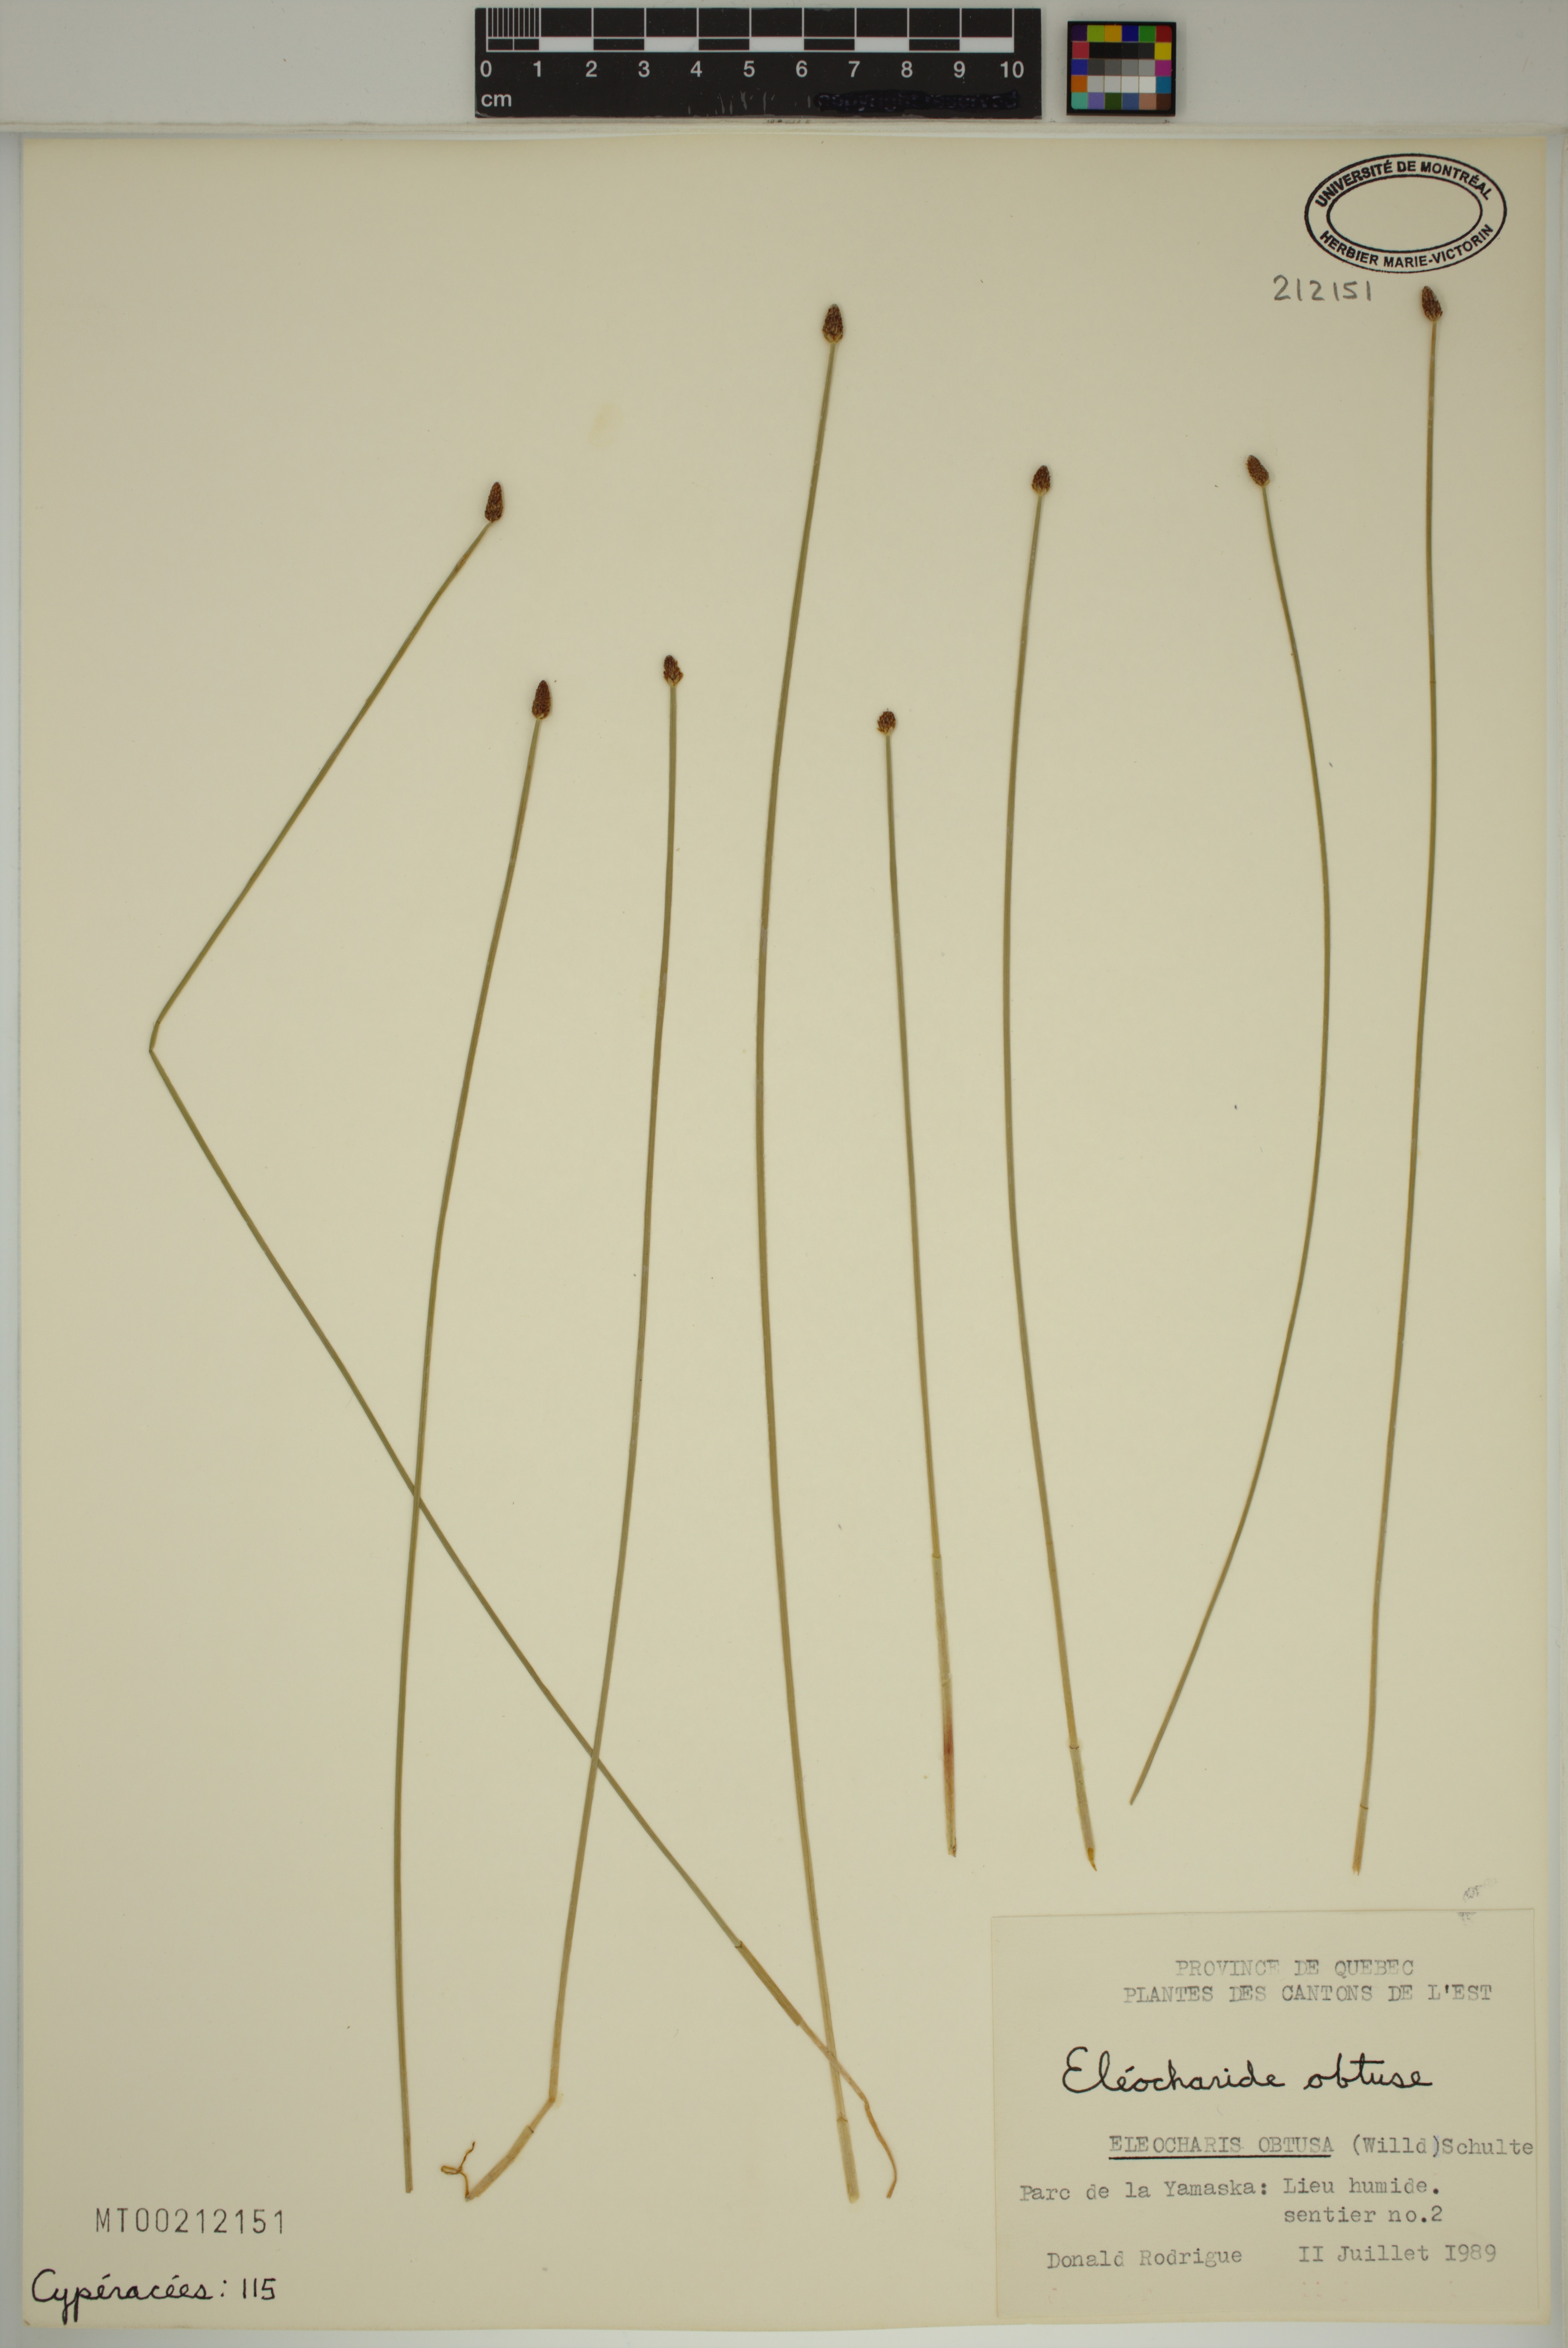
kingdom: Plantae
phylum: Tracheophyta
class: Liliopsida
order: Poales
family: Cyperaceae
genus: Eleocharis
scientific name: Eleocharis obtusa
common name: Blunt spikerush
